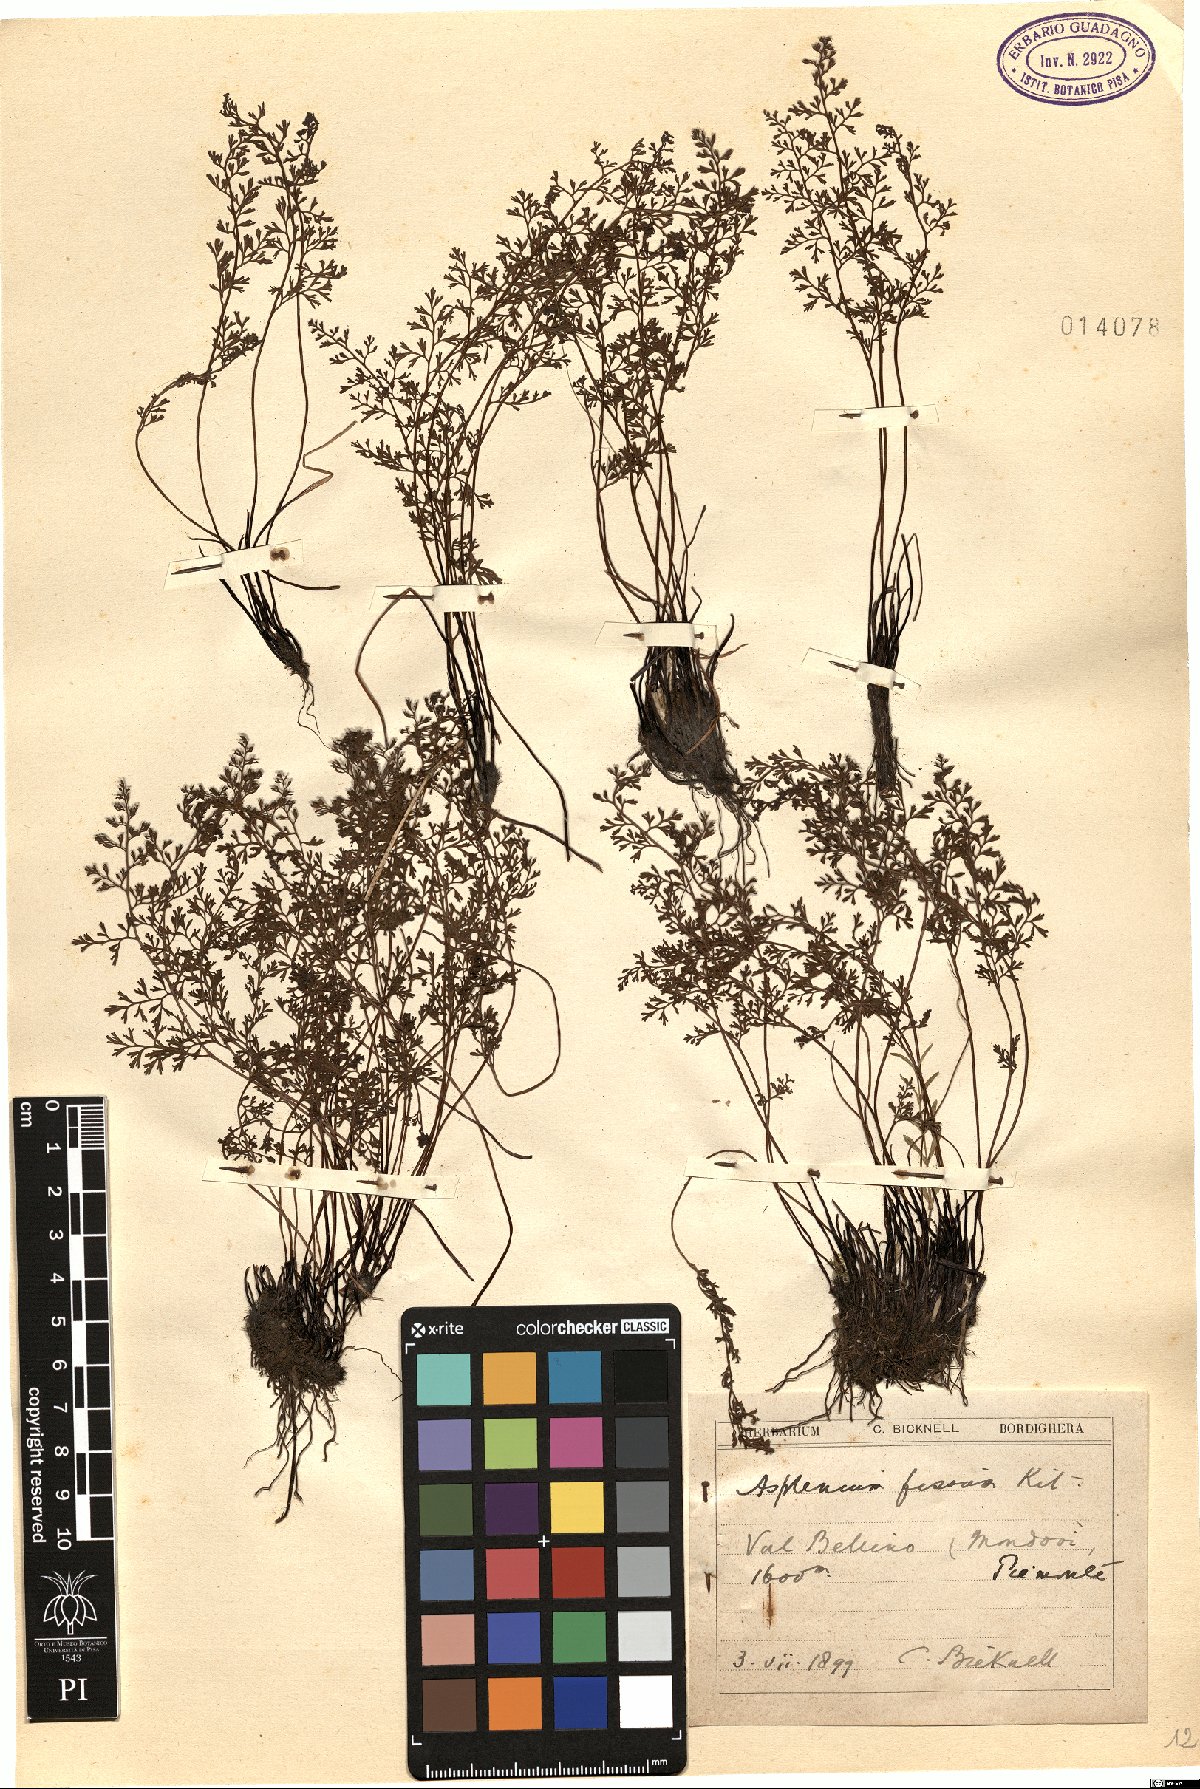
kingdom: Plantae
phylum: Tracheophyta
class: Polypodiopsida
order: Polypodiales
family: Aspleniaceae
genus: Asplenium
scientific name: Asplenium fissum
